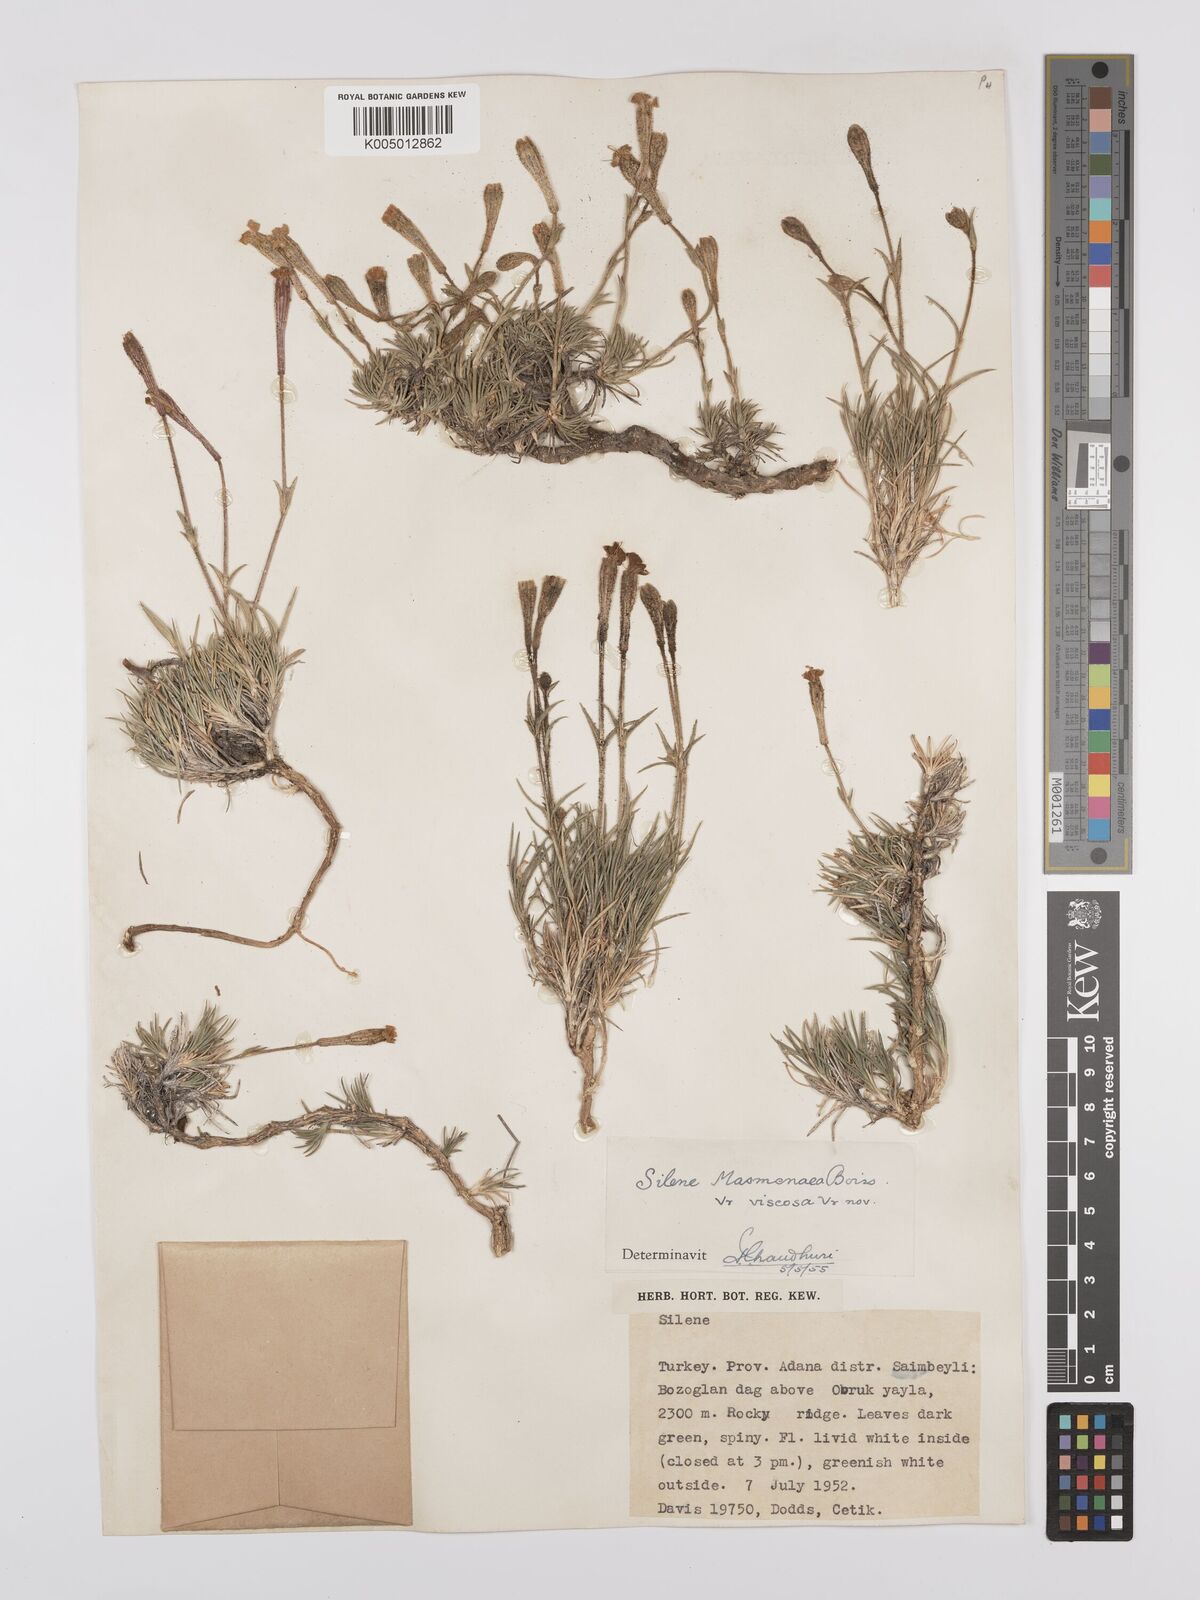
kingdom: Plantae
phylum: Tracheophyta
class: Magnoliopsida
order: Caryophyllales
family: Caryophyllaceae
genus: Silene
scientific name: Silene caryophylloides
